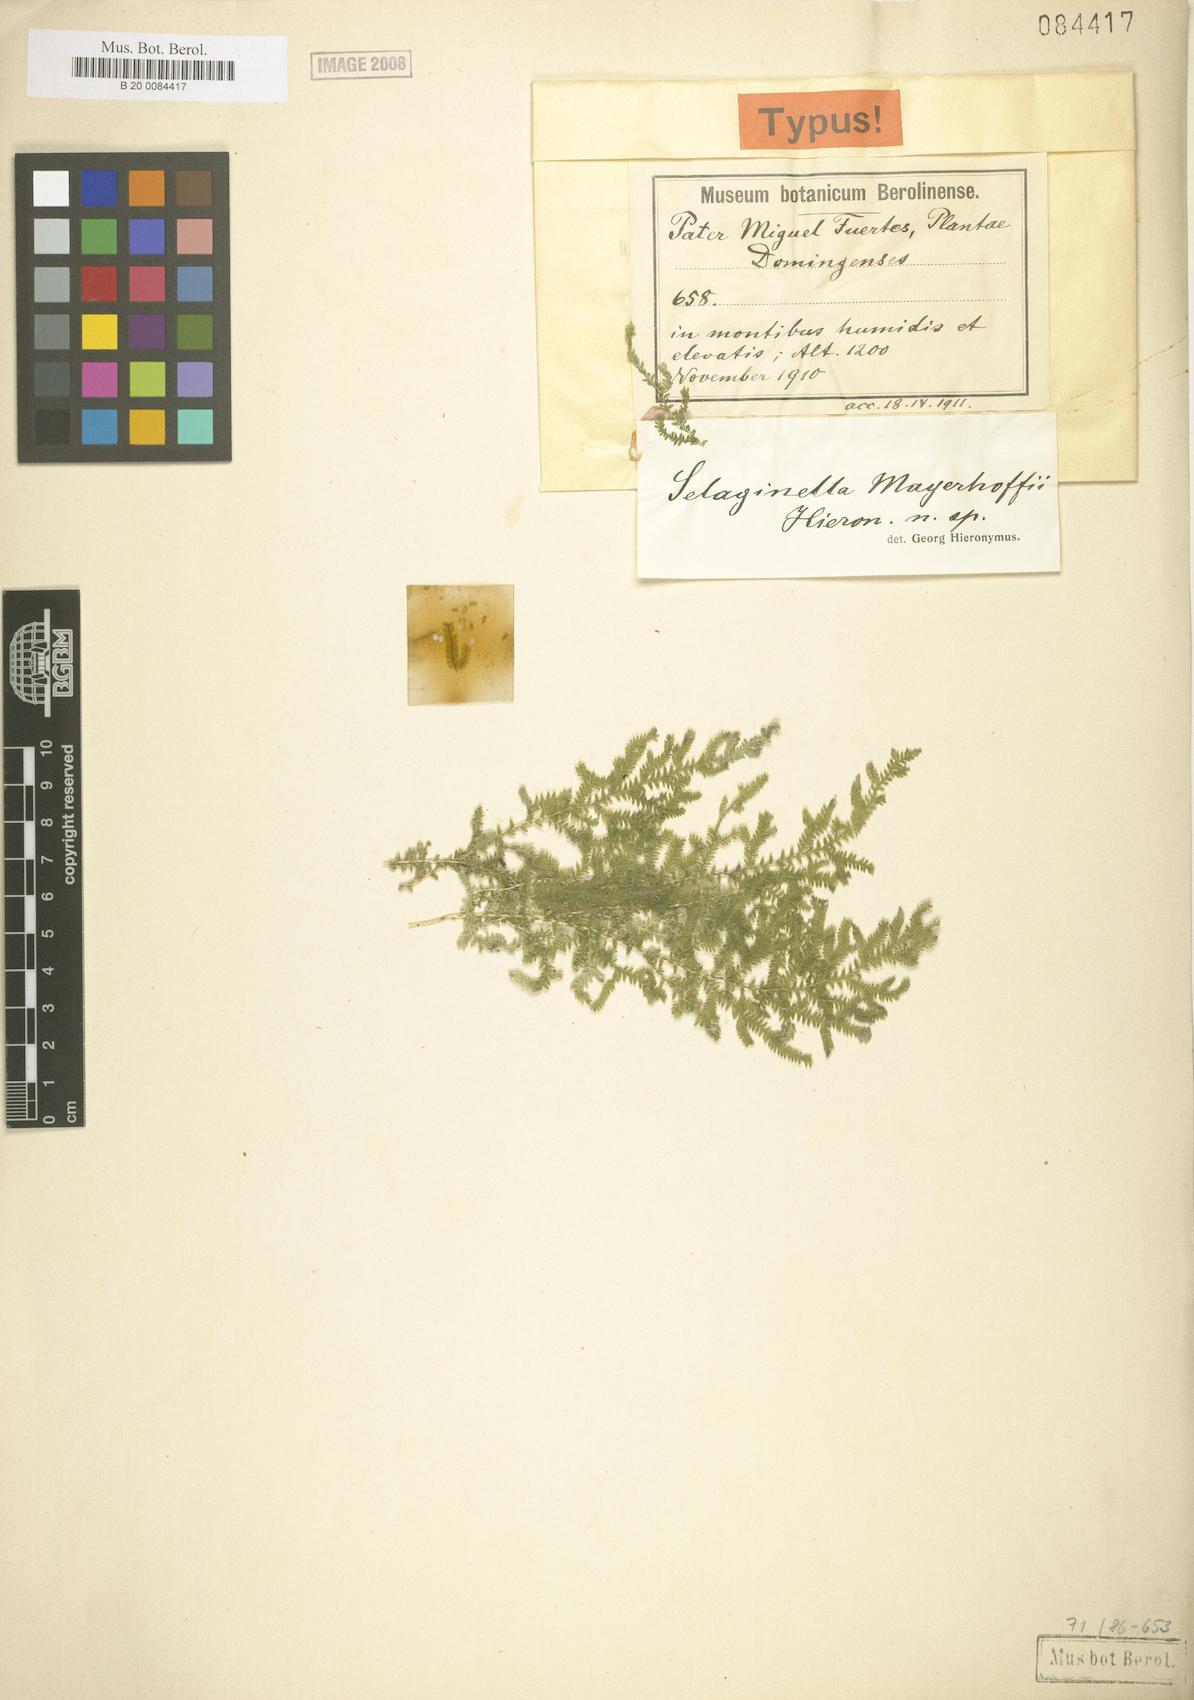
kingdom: Plantae
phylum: Tracheophyta
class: Lycopodiopsida
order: Selaginellales
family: Selaginellaceae
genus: Selaginella
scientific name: Selaginella flabellum
